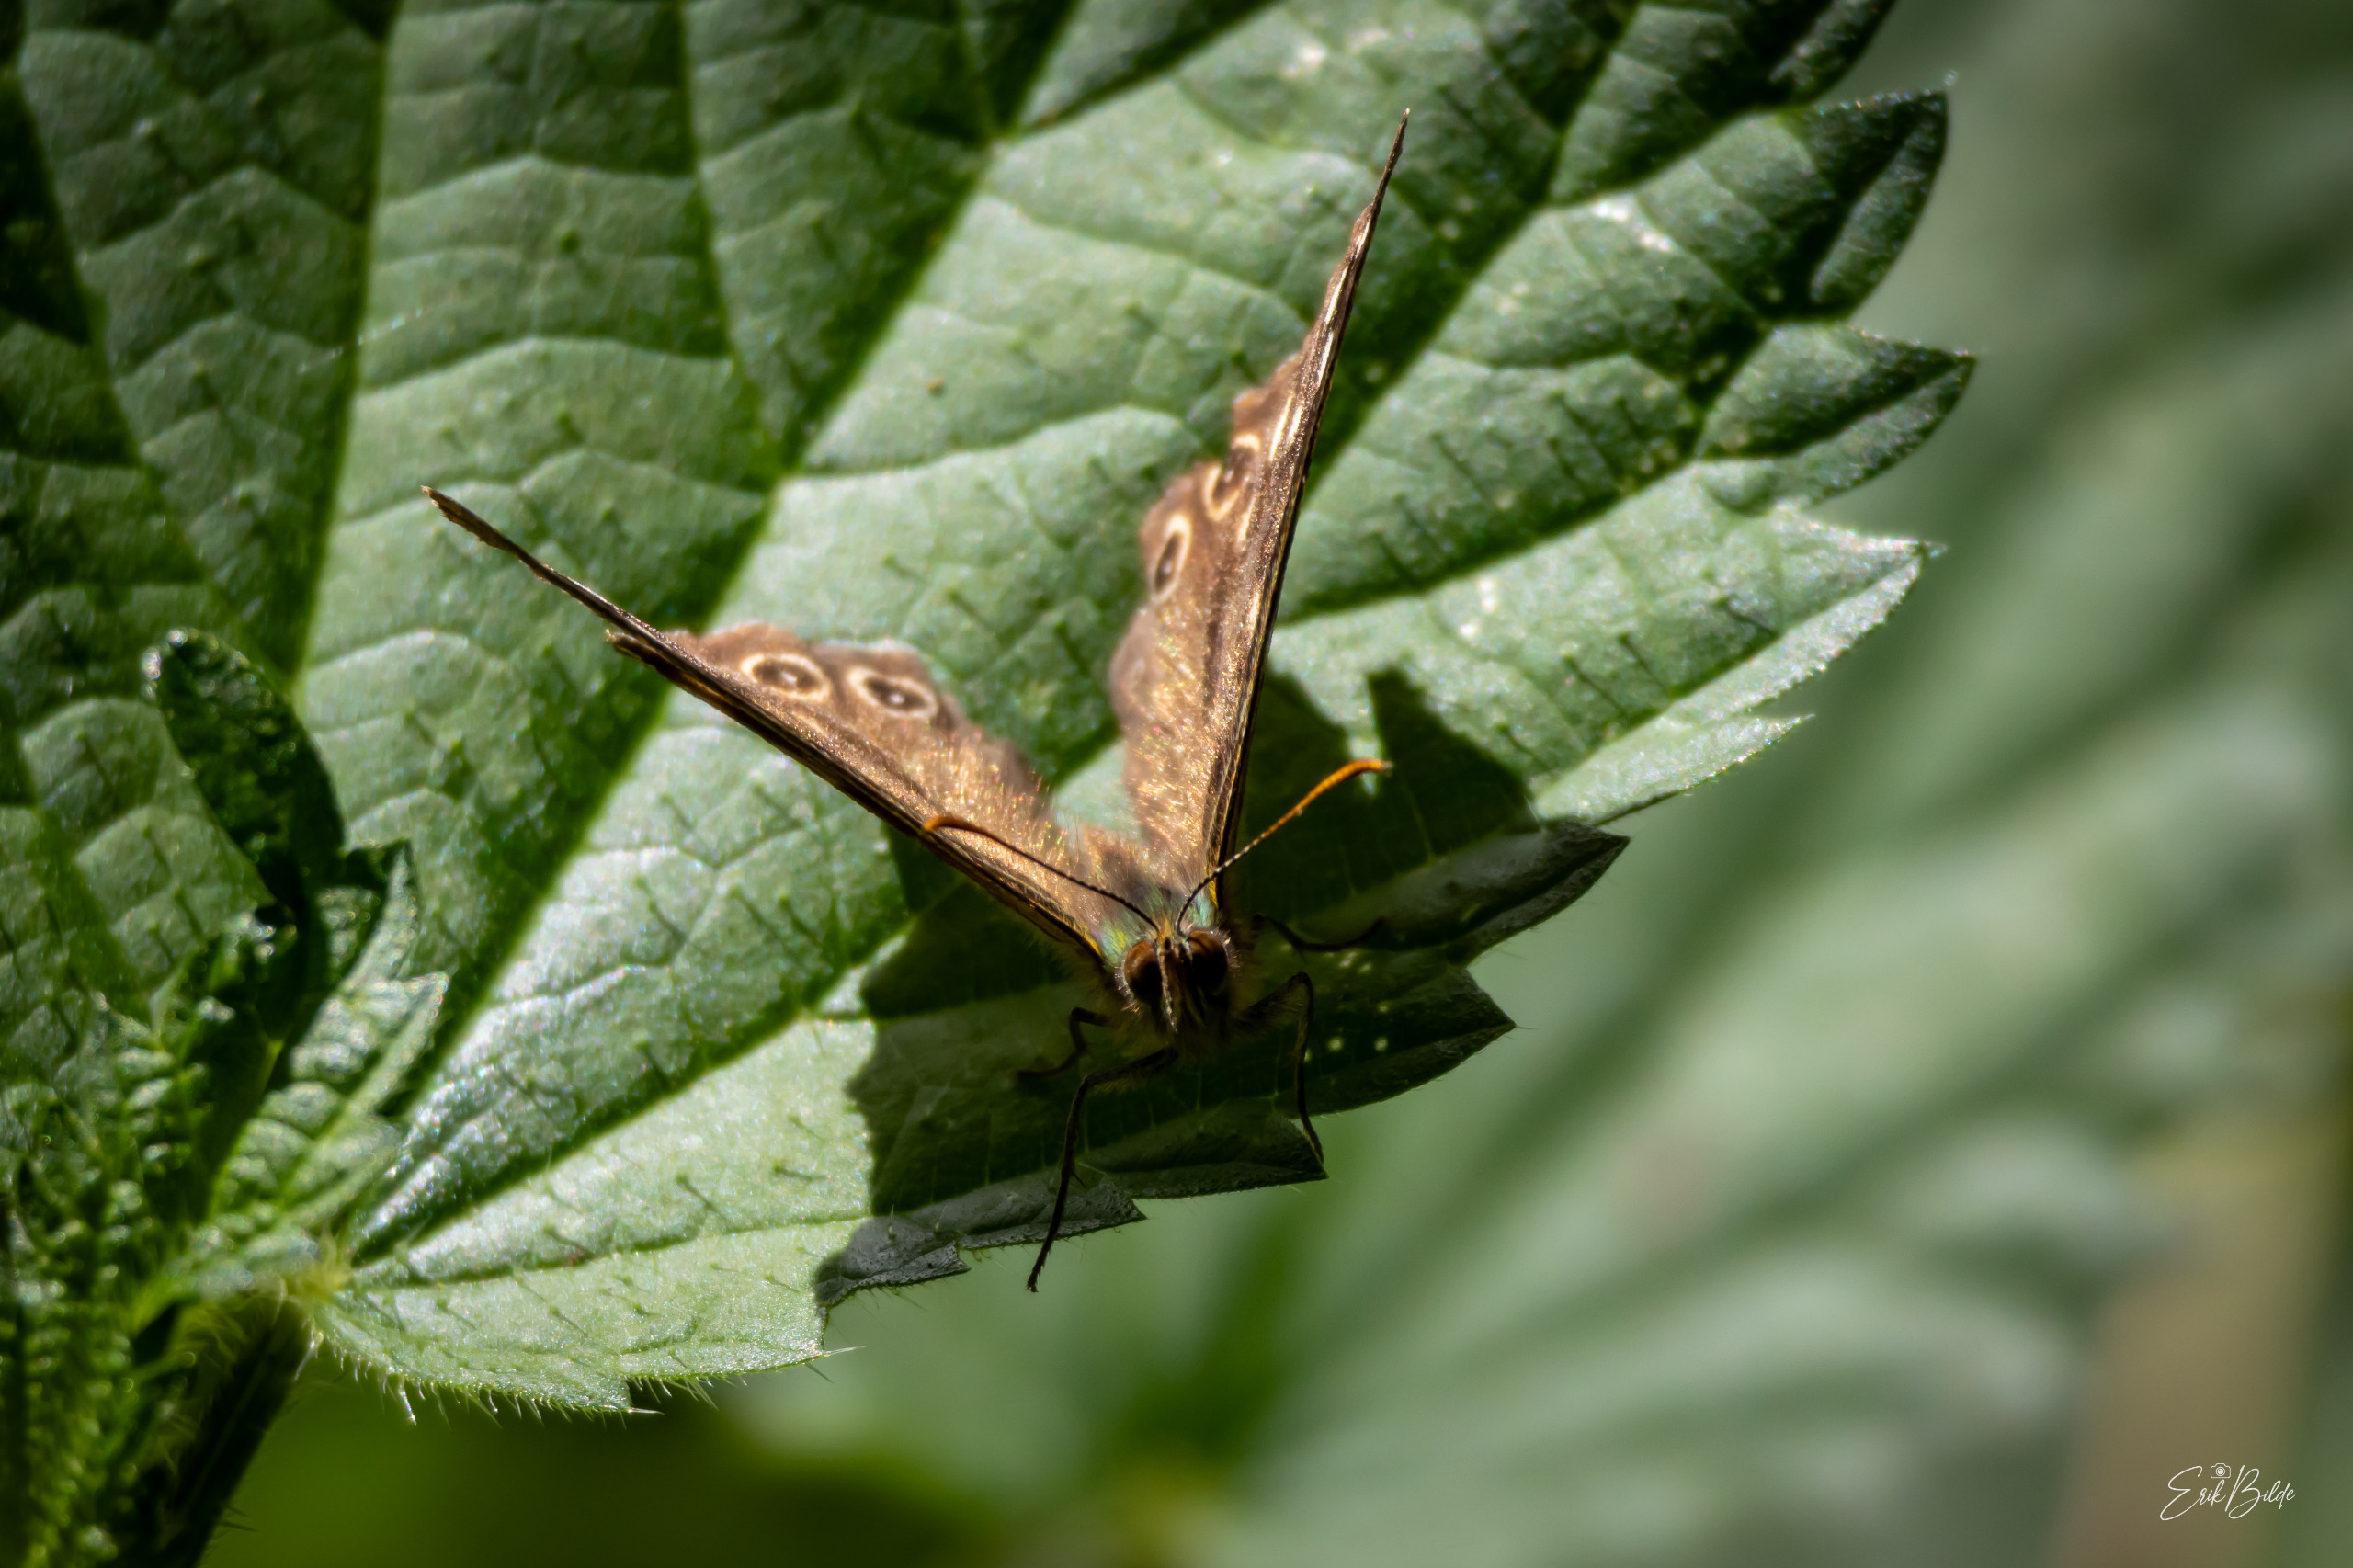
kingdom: Animalia
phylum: Arthropoda
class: Insecta
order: Lepidoptera
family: Nymphalidae
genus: Pararge
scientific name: Pararge aegeria
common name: Skovrandøje
